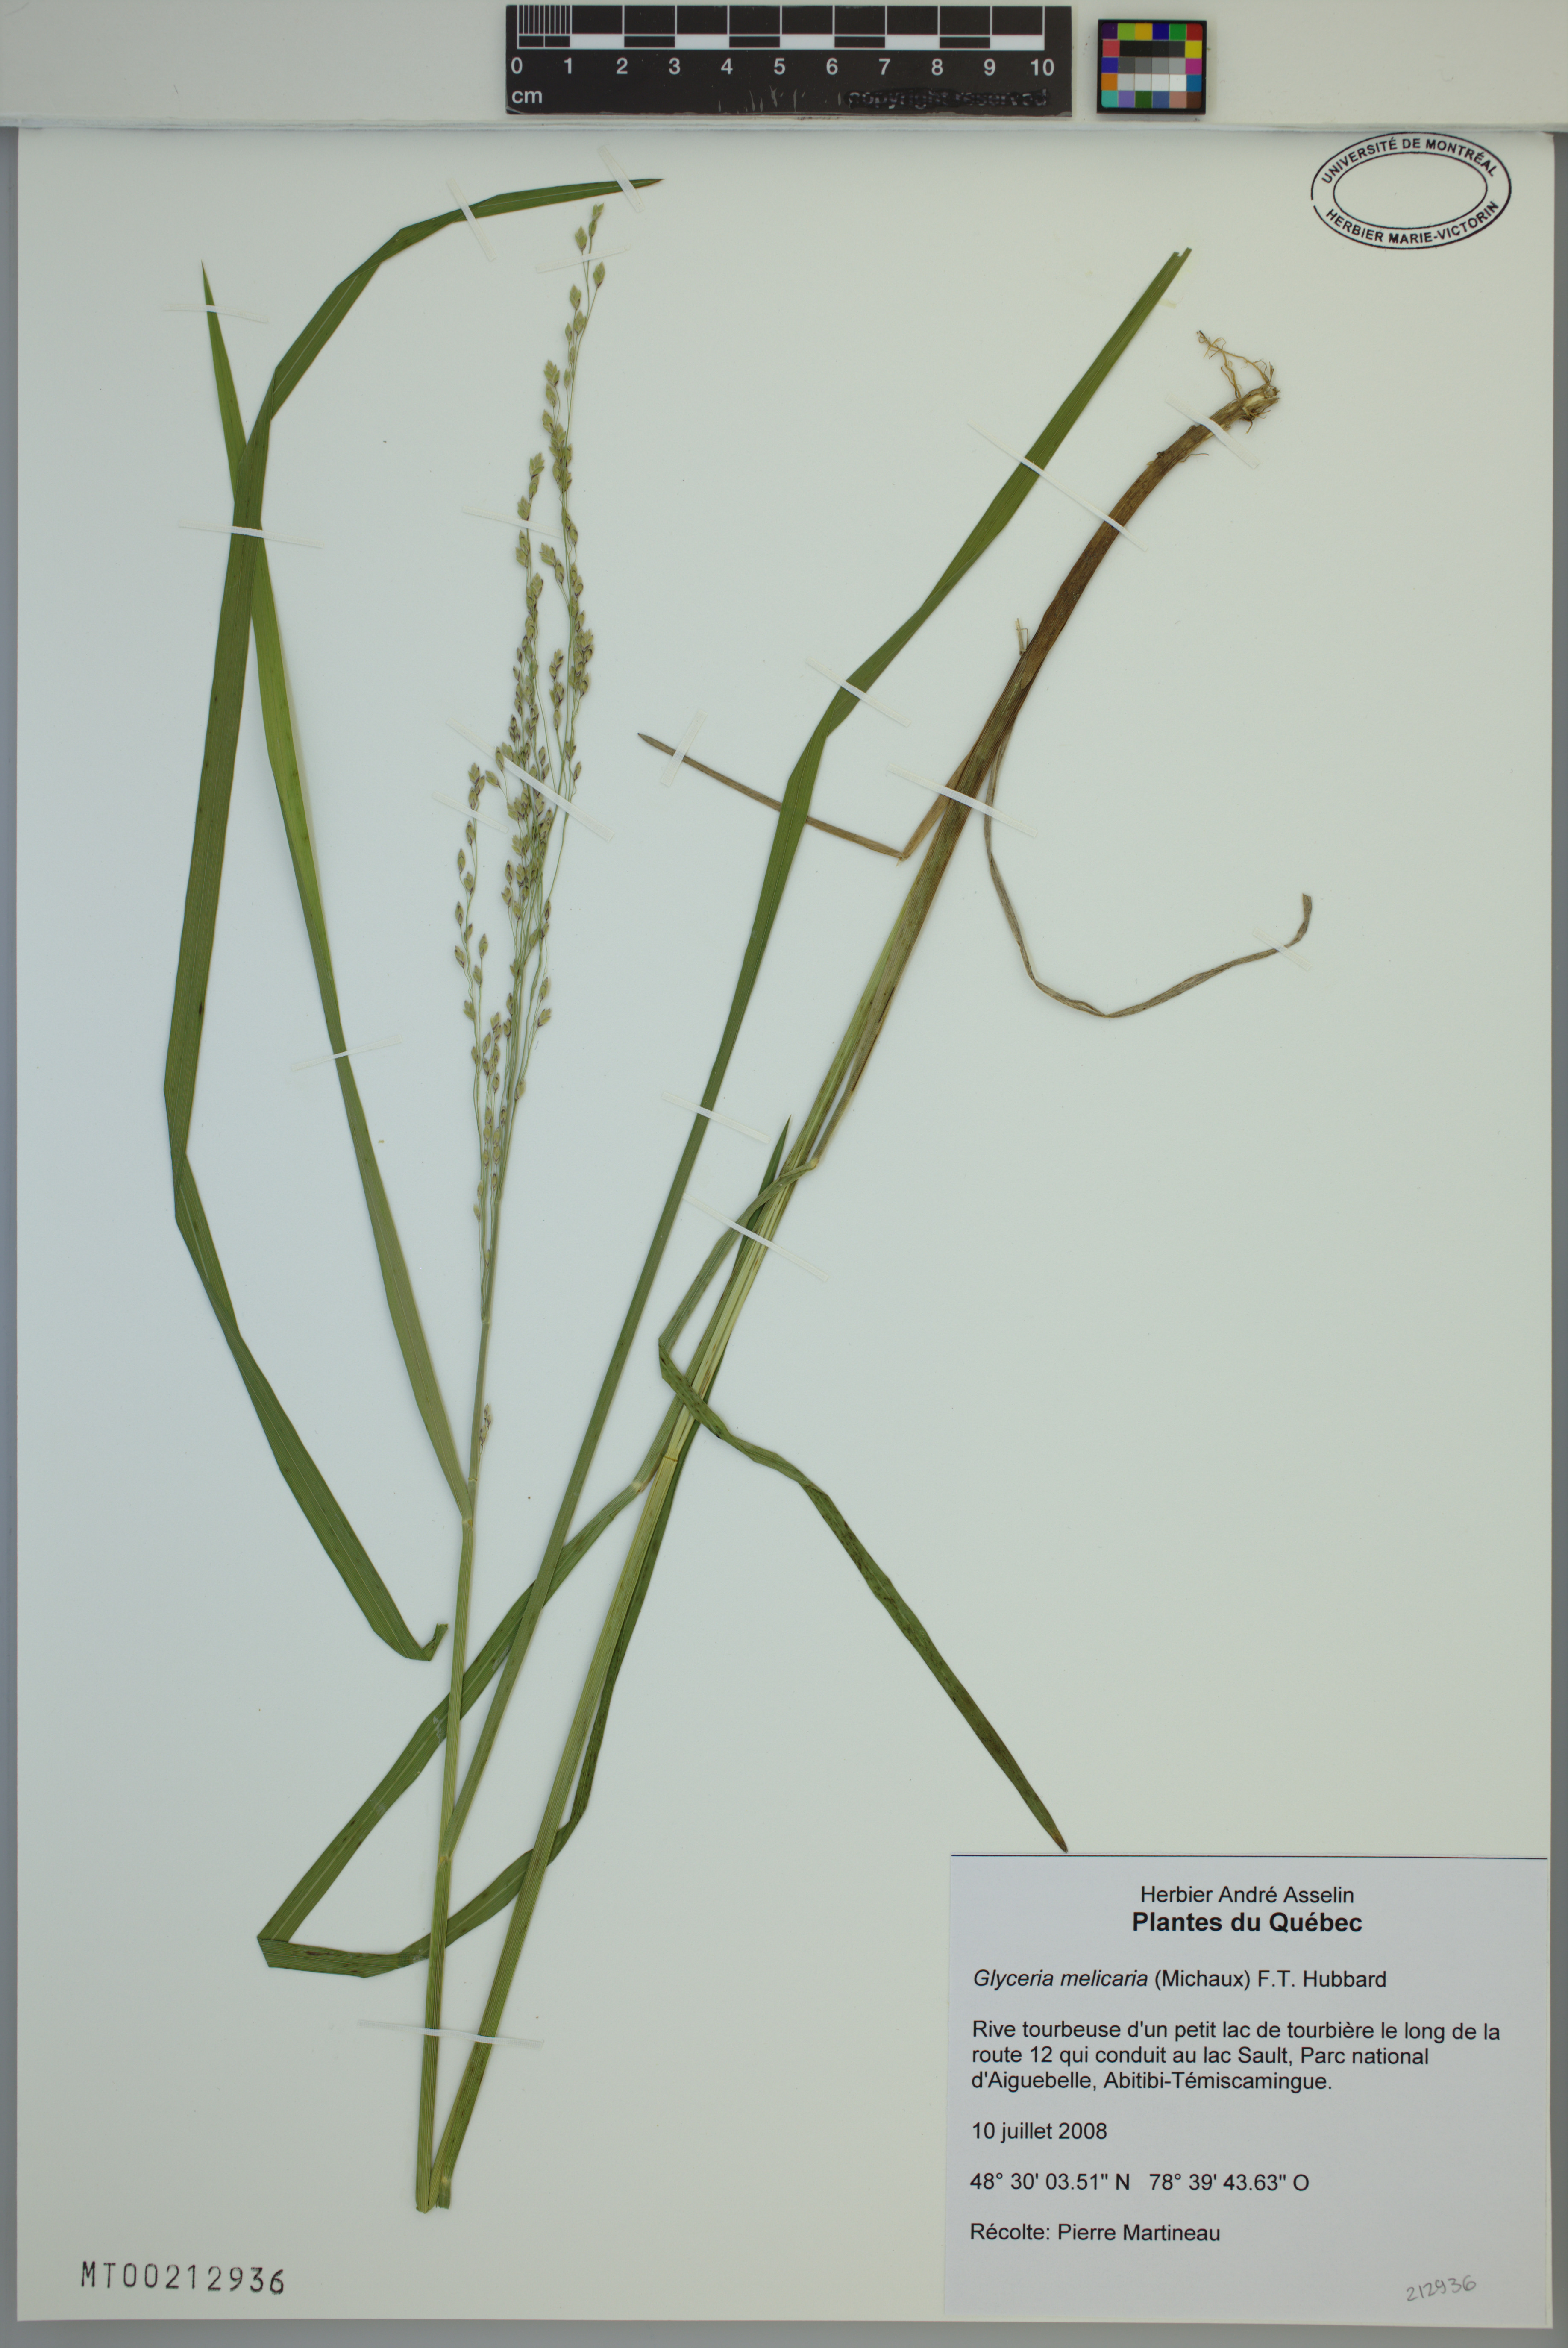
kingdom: Plantae
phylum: Tracheophyta
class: Liliopsida
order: Poales
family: Poaceae
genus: Glyceria
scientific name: Glyceria melicaria
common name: Long mannagrass
